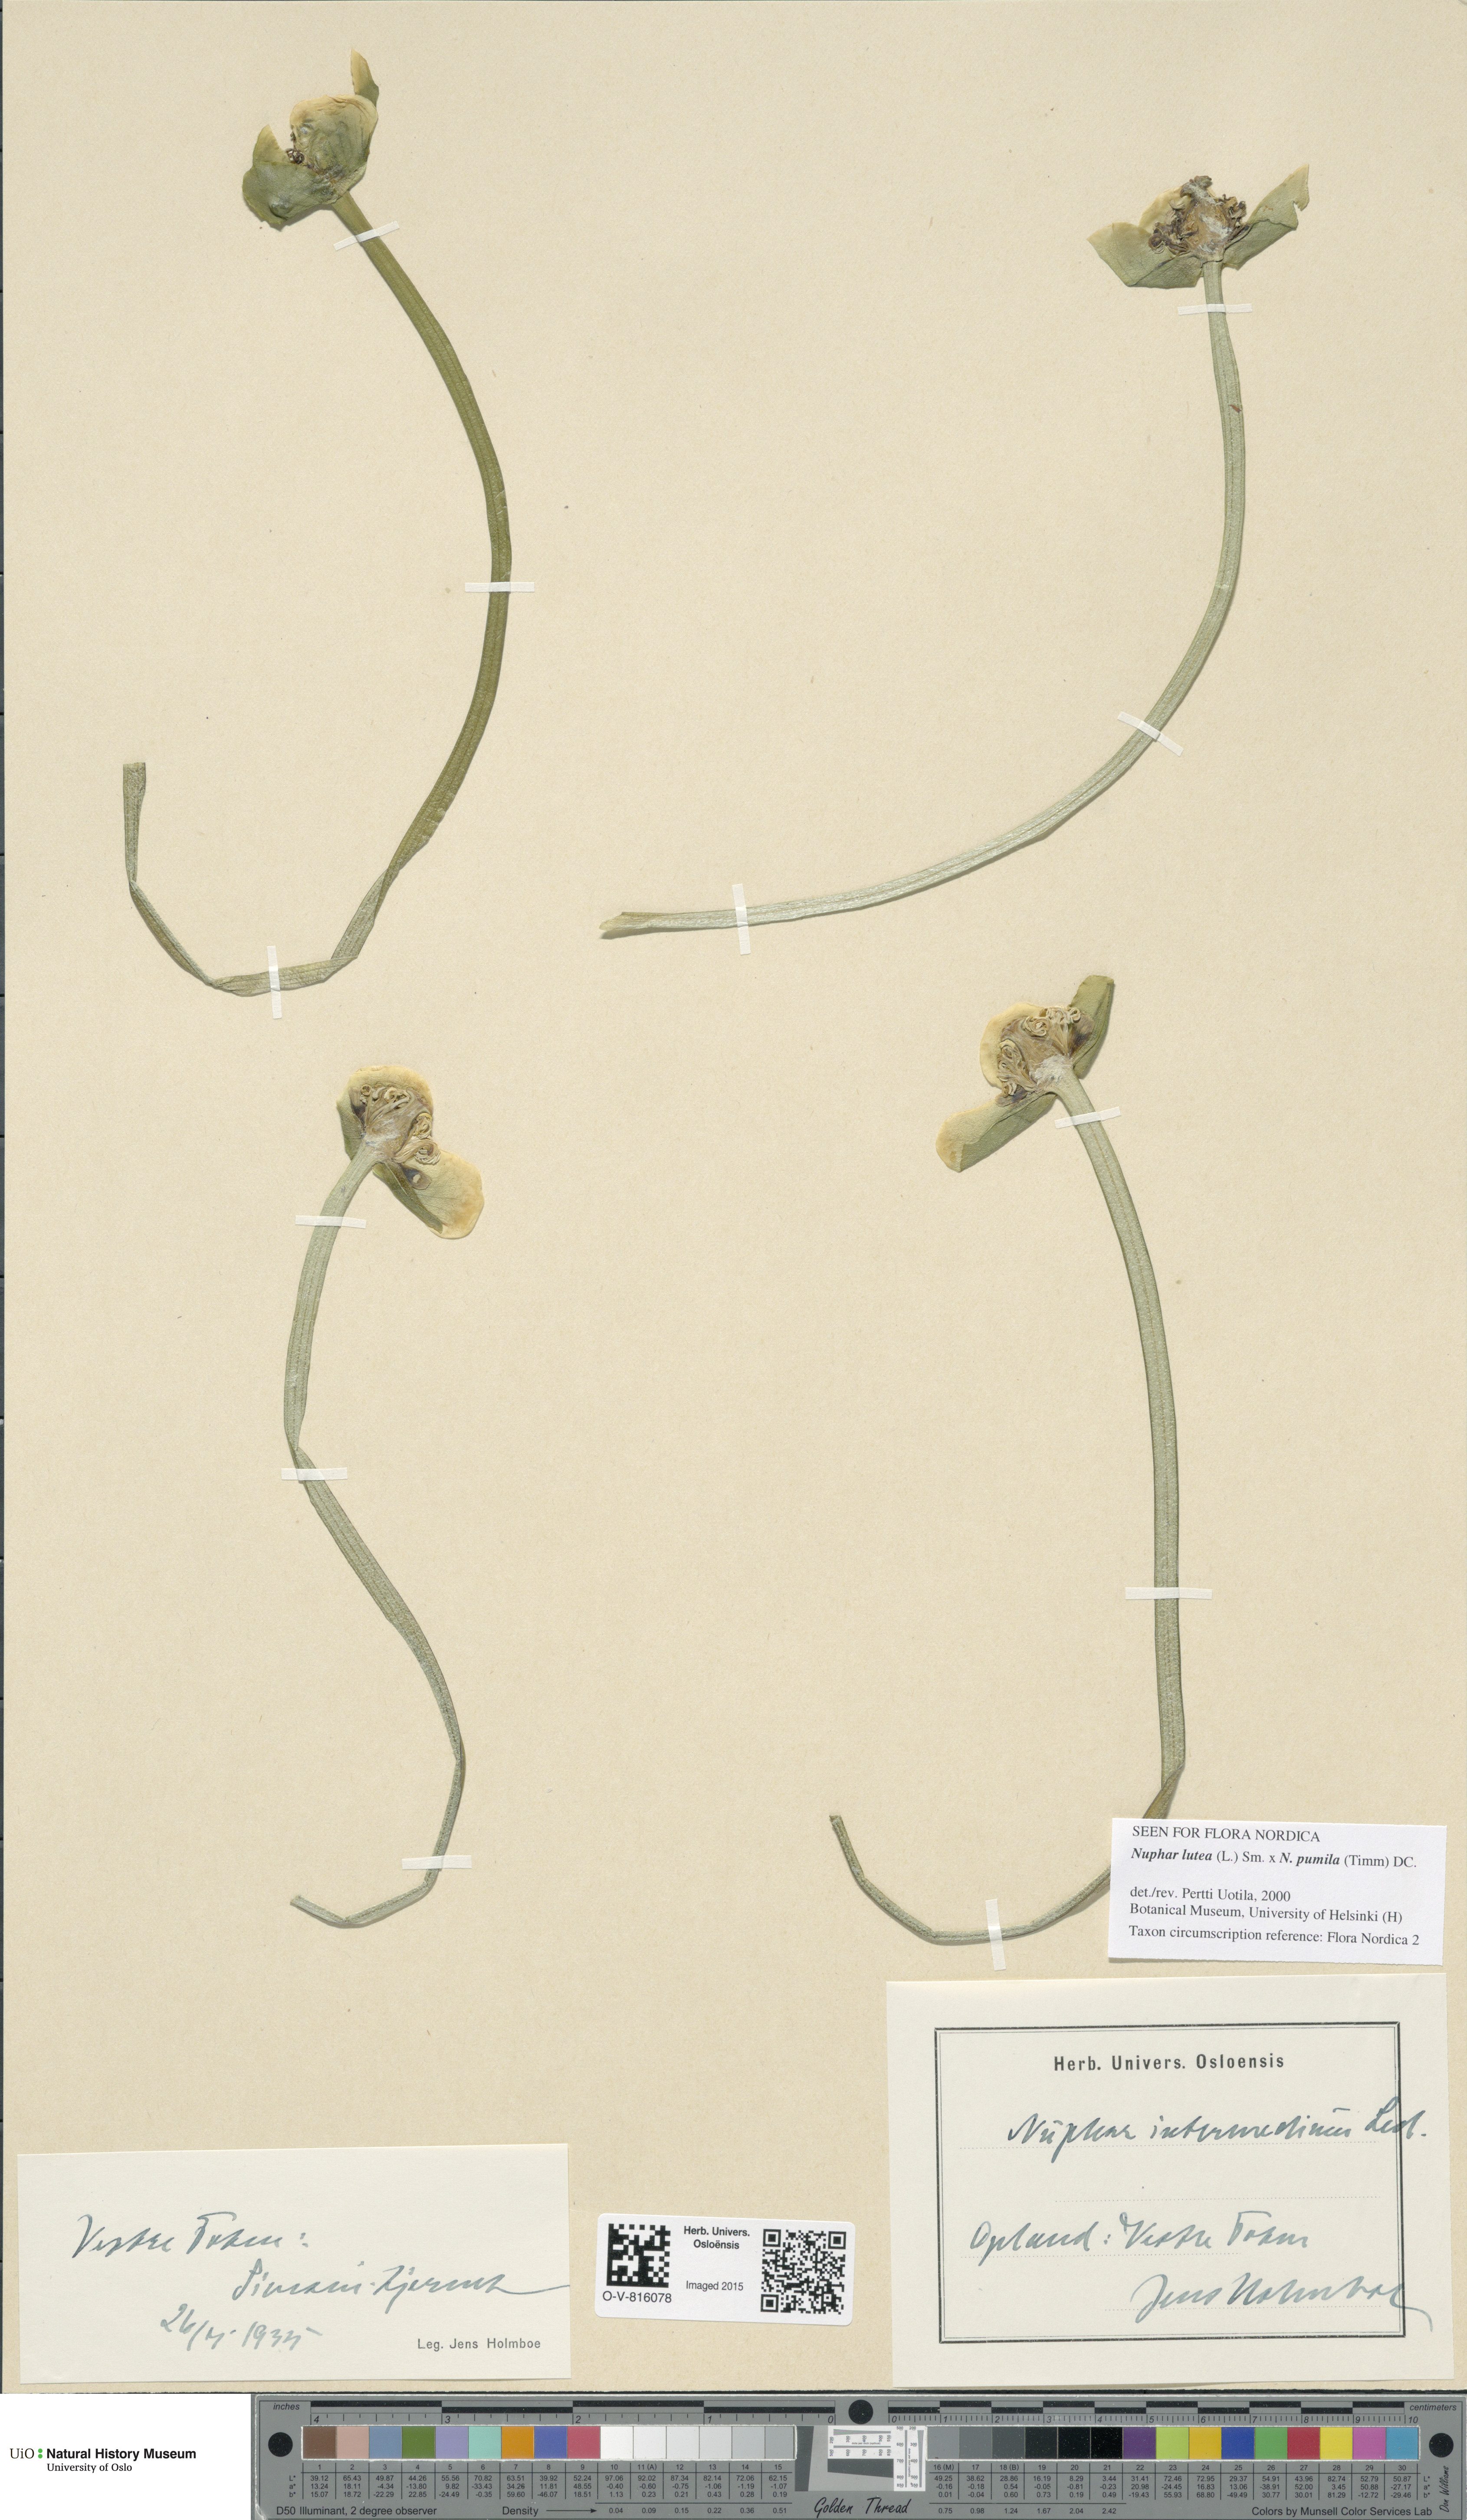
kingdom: Plantae
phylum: Tracheophyta
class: Magnoliopsida
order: Nymphaeales
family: Nymphaeaceae
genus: Nuphar
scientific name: Nuphar
